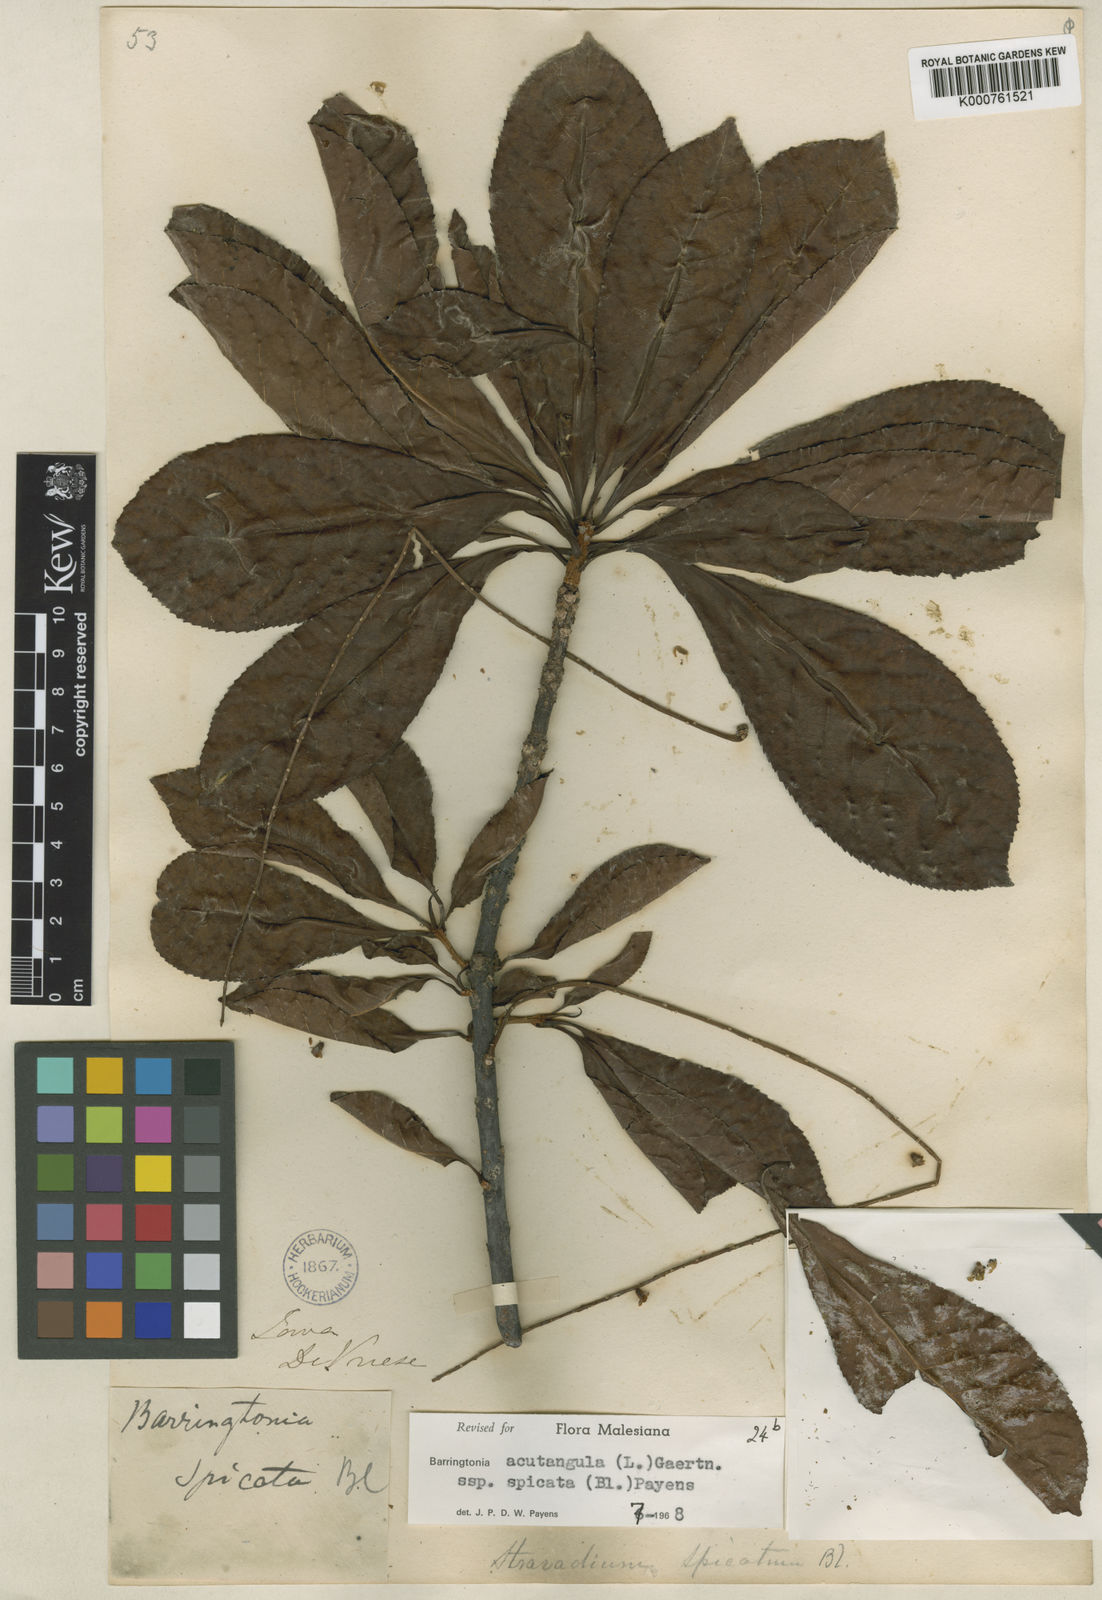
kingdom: Plantae
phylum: Tracheophyta
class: Magnoliopsida
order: Ericales
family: Lecythidaceae
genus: Barringtonia
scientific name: Barringtonia acutangula
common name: Freshwater mangrove
